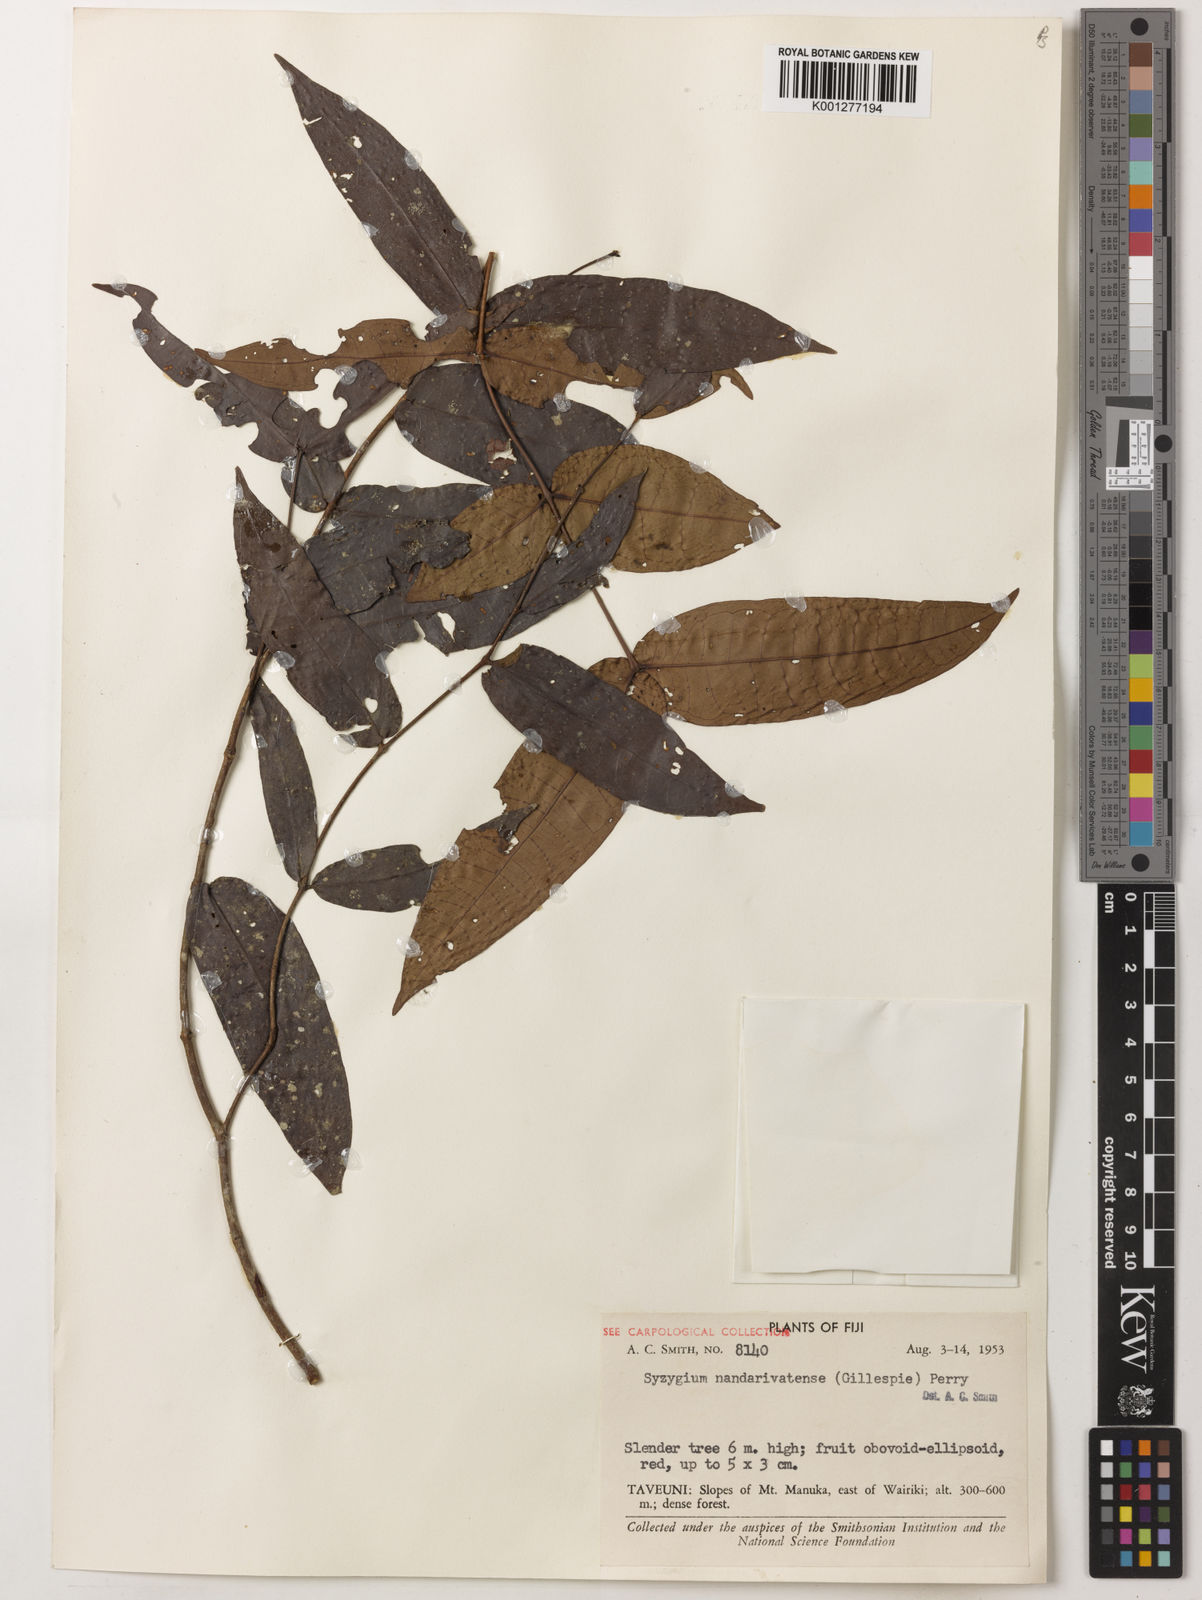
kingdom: Plantae
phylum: Tracheophyta
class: Magnoliopsida
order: Myrtales
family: Myrtaceae
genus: Syzygium
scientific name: Syzygium gracilipes
